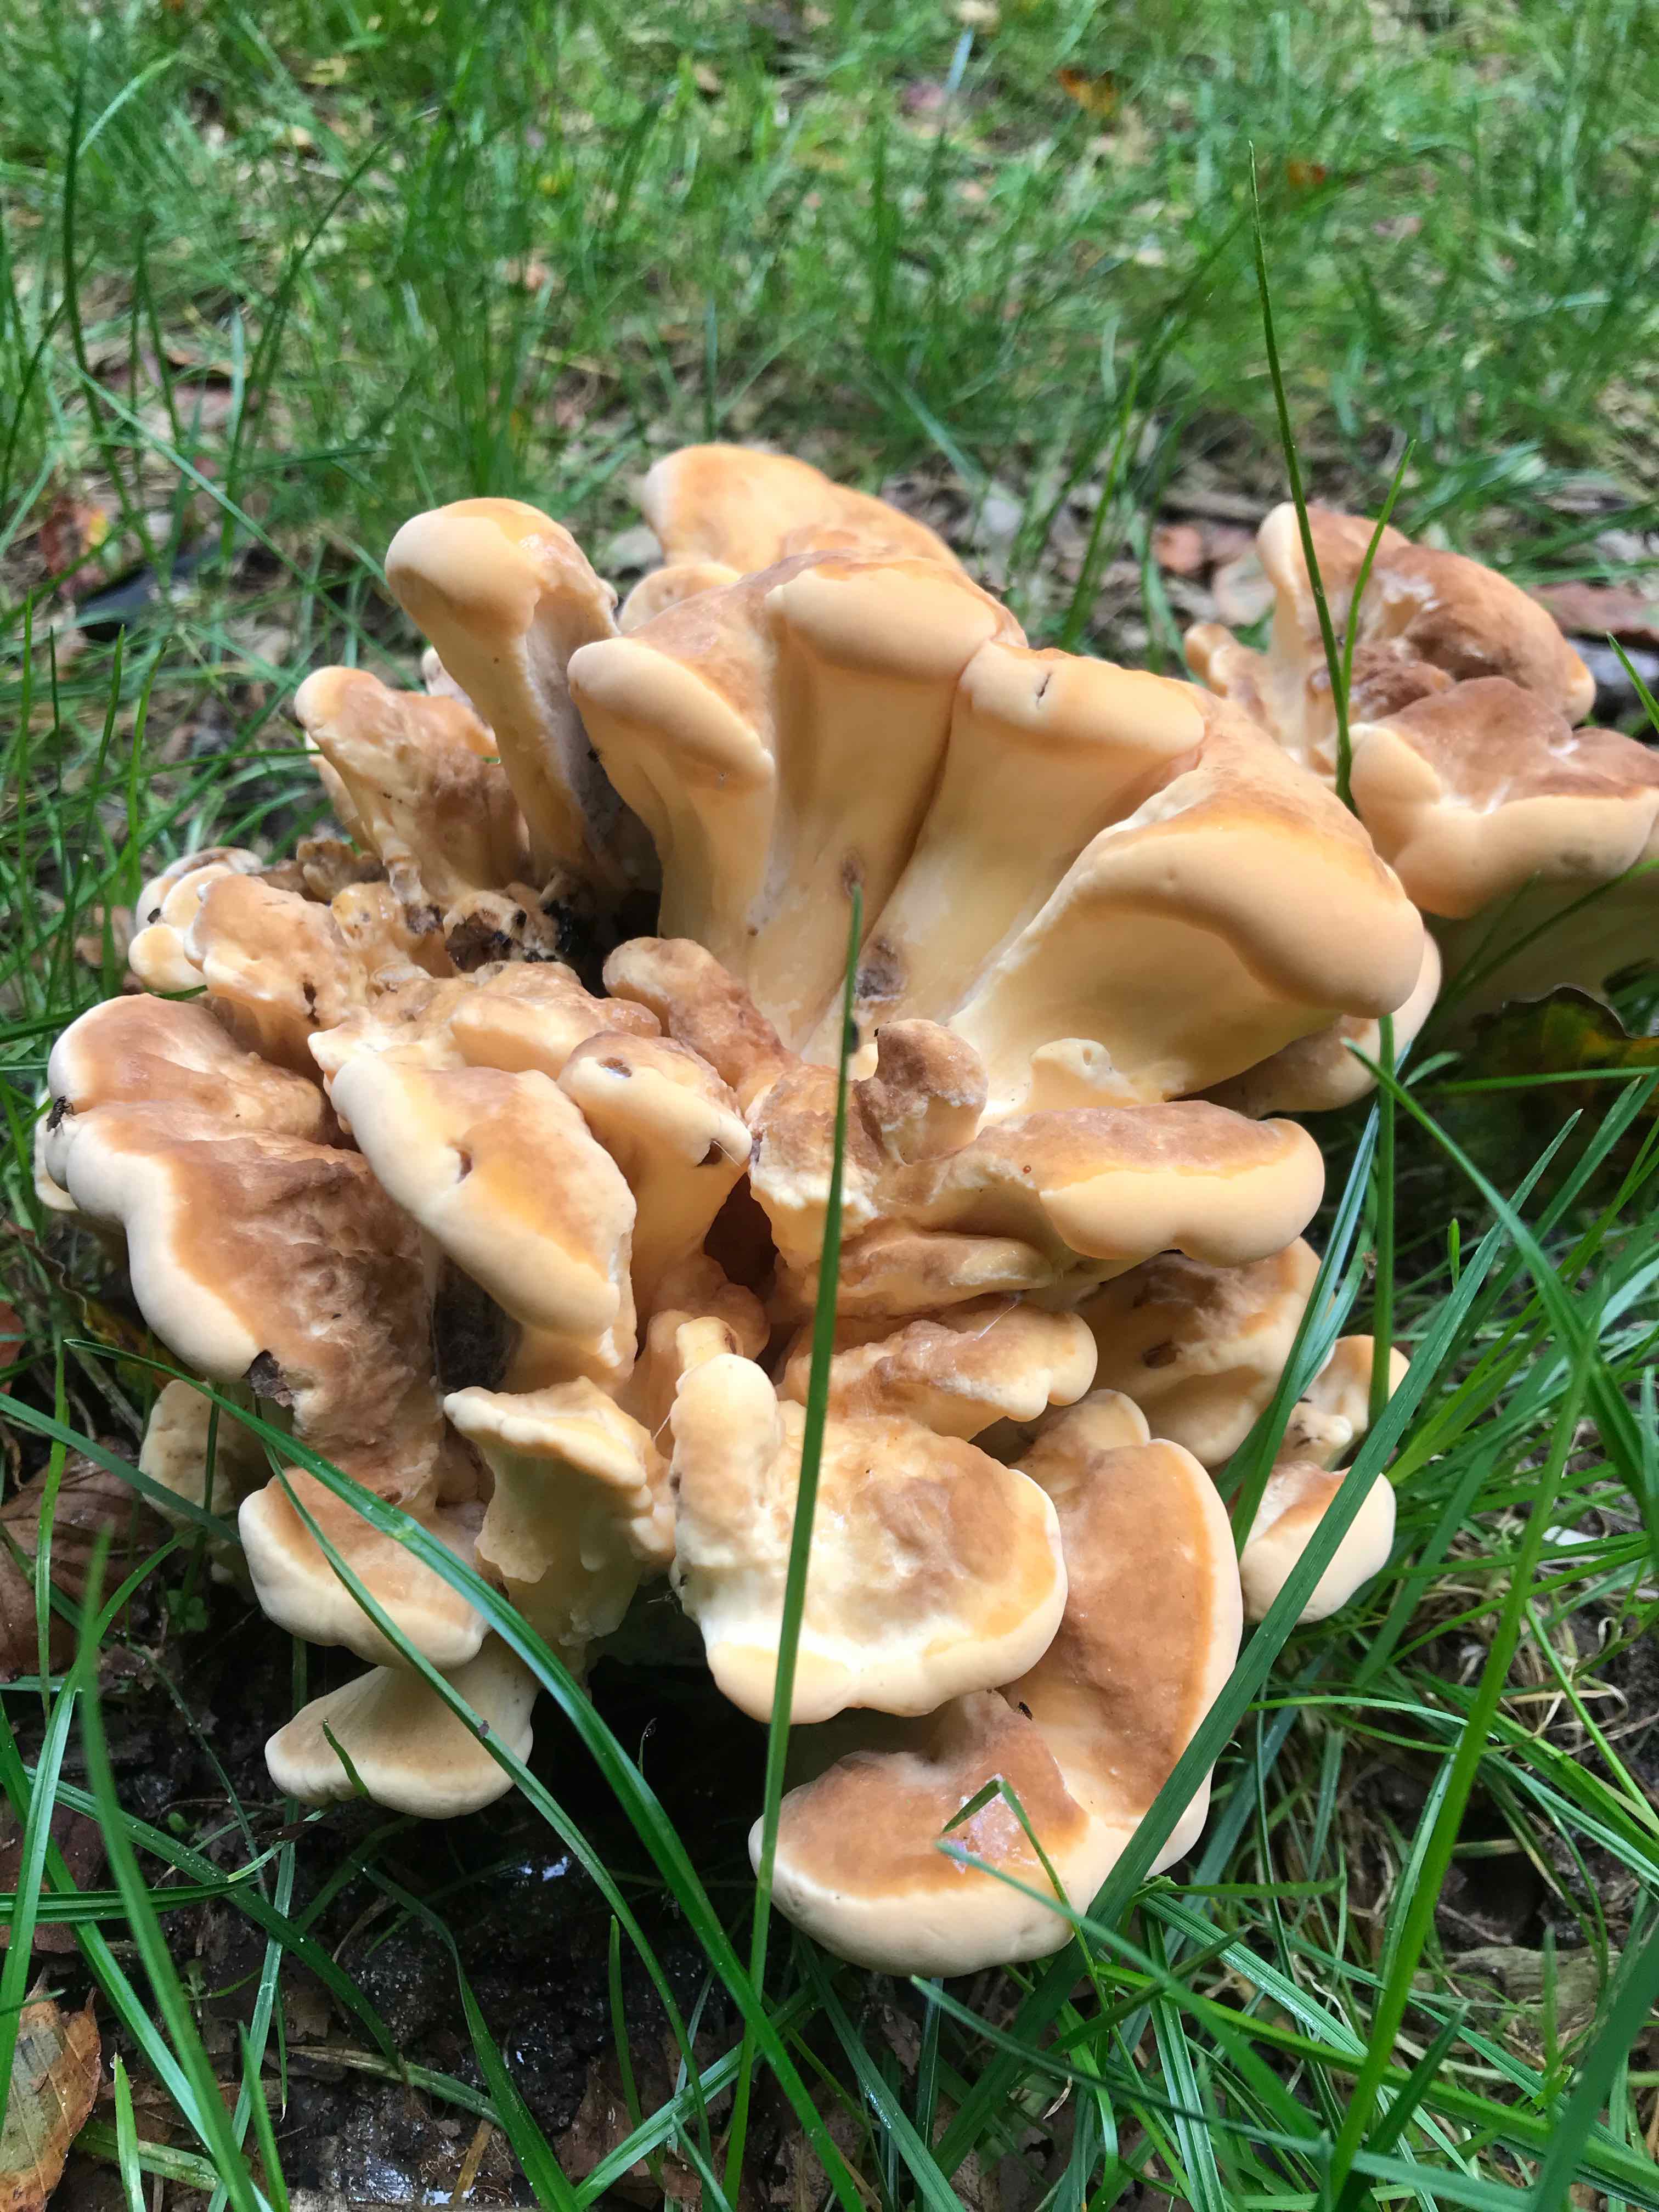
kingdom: Fungi
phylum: Basidiomycota
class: Agaricomycetes
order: Polyporales
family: Meripilaceae
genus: Meripilus
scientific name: Meripilus giganteus
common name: kæmpeporesvamp
